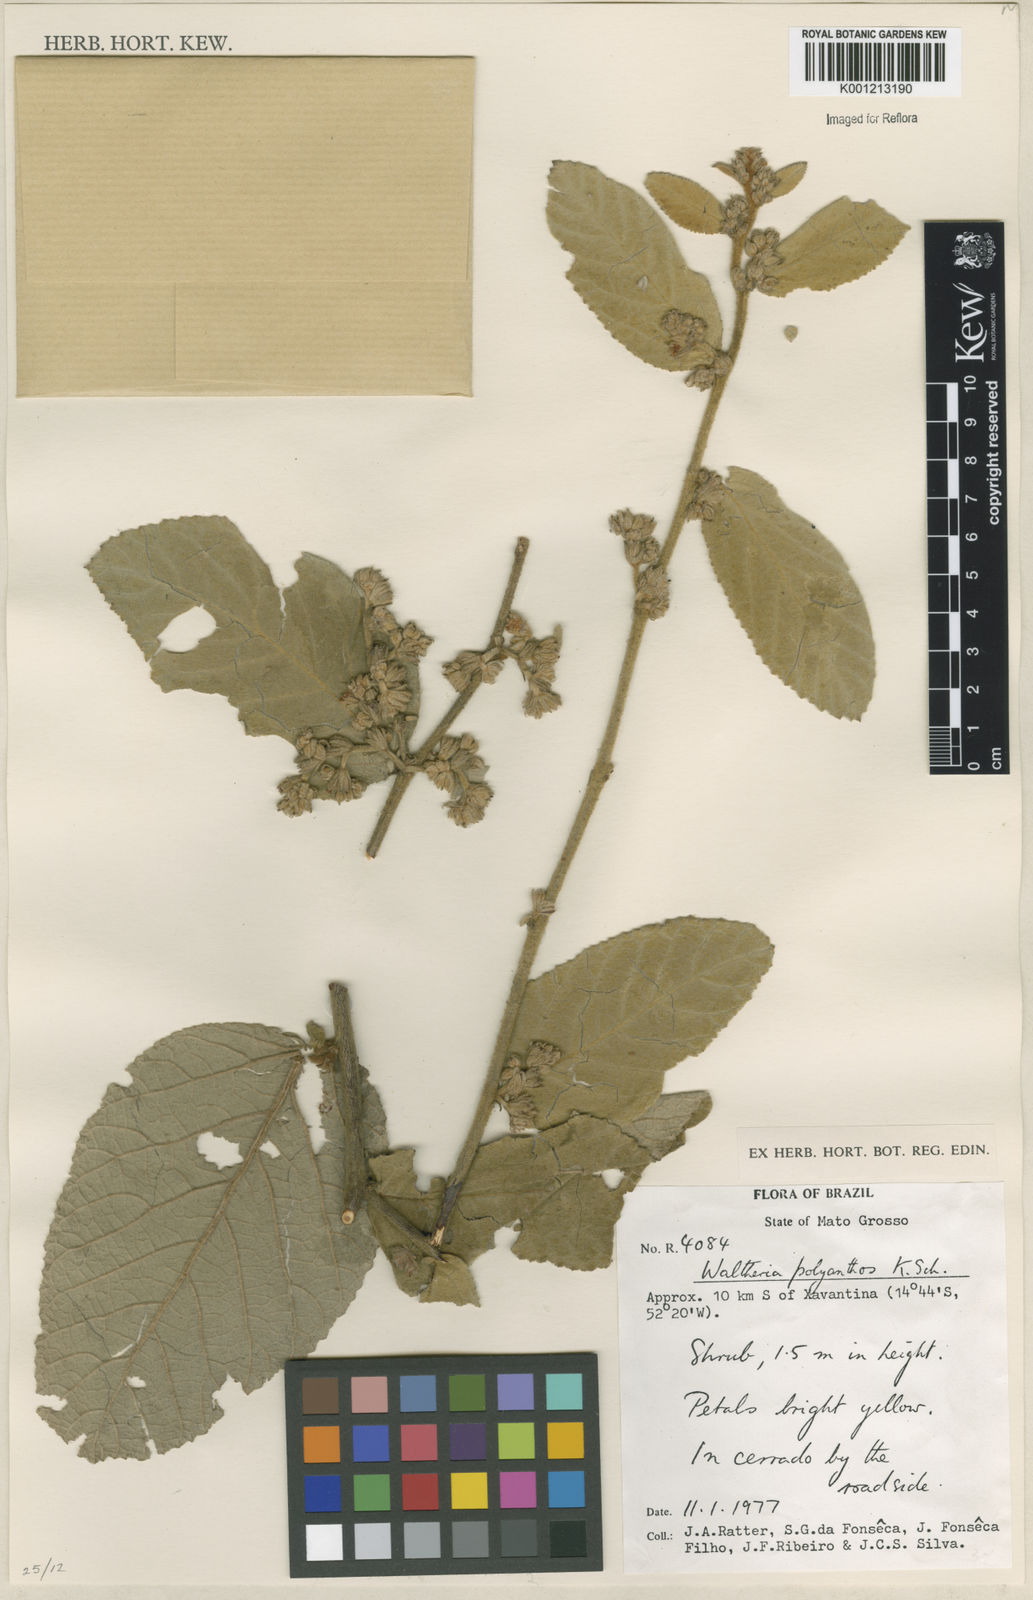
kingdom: Plantae
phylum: Tracheophyta
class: Magnoliopsida
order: Malvales
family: Malvaceae
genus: Waltheria
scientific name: Waltheria polyantha
